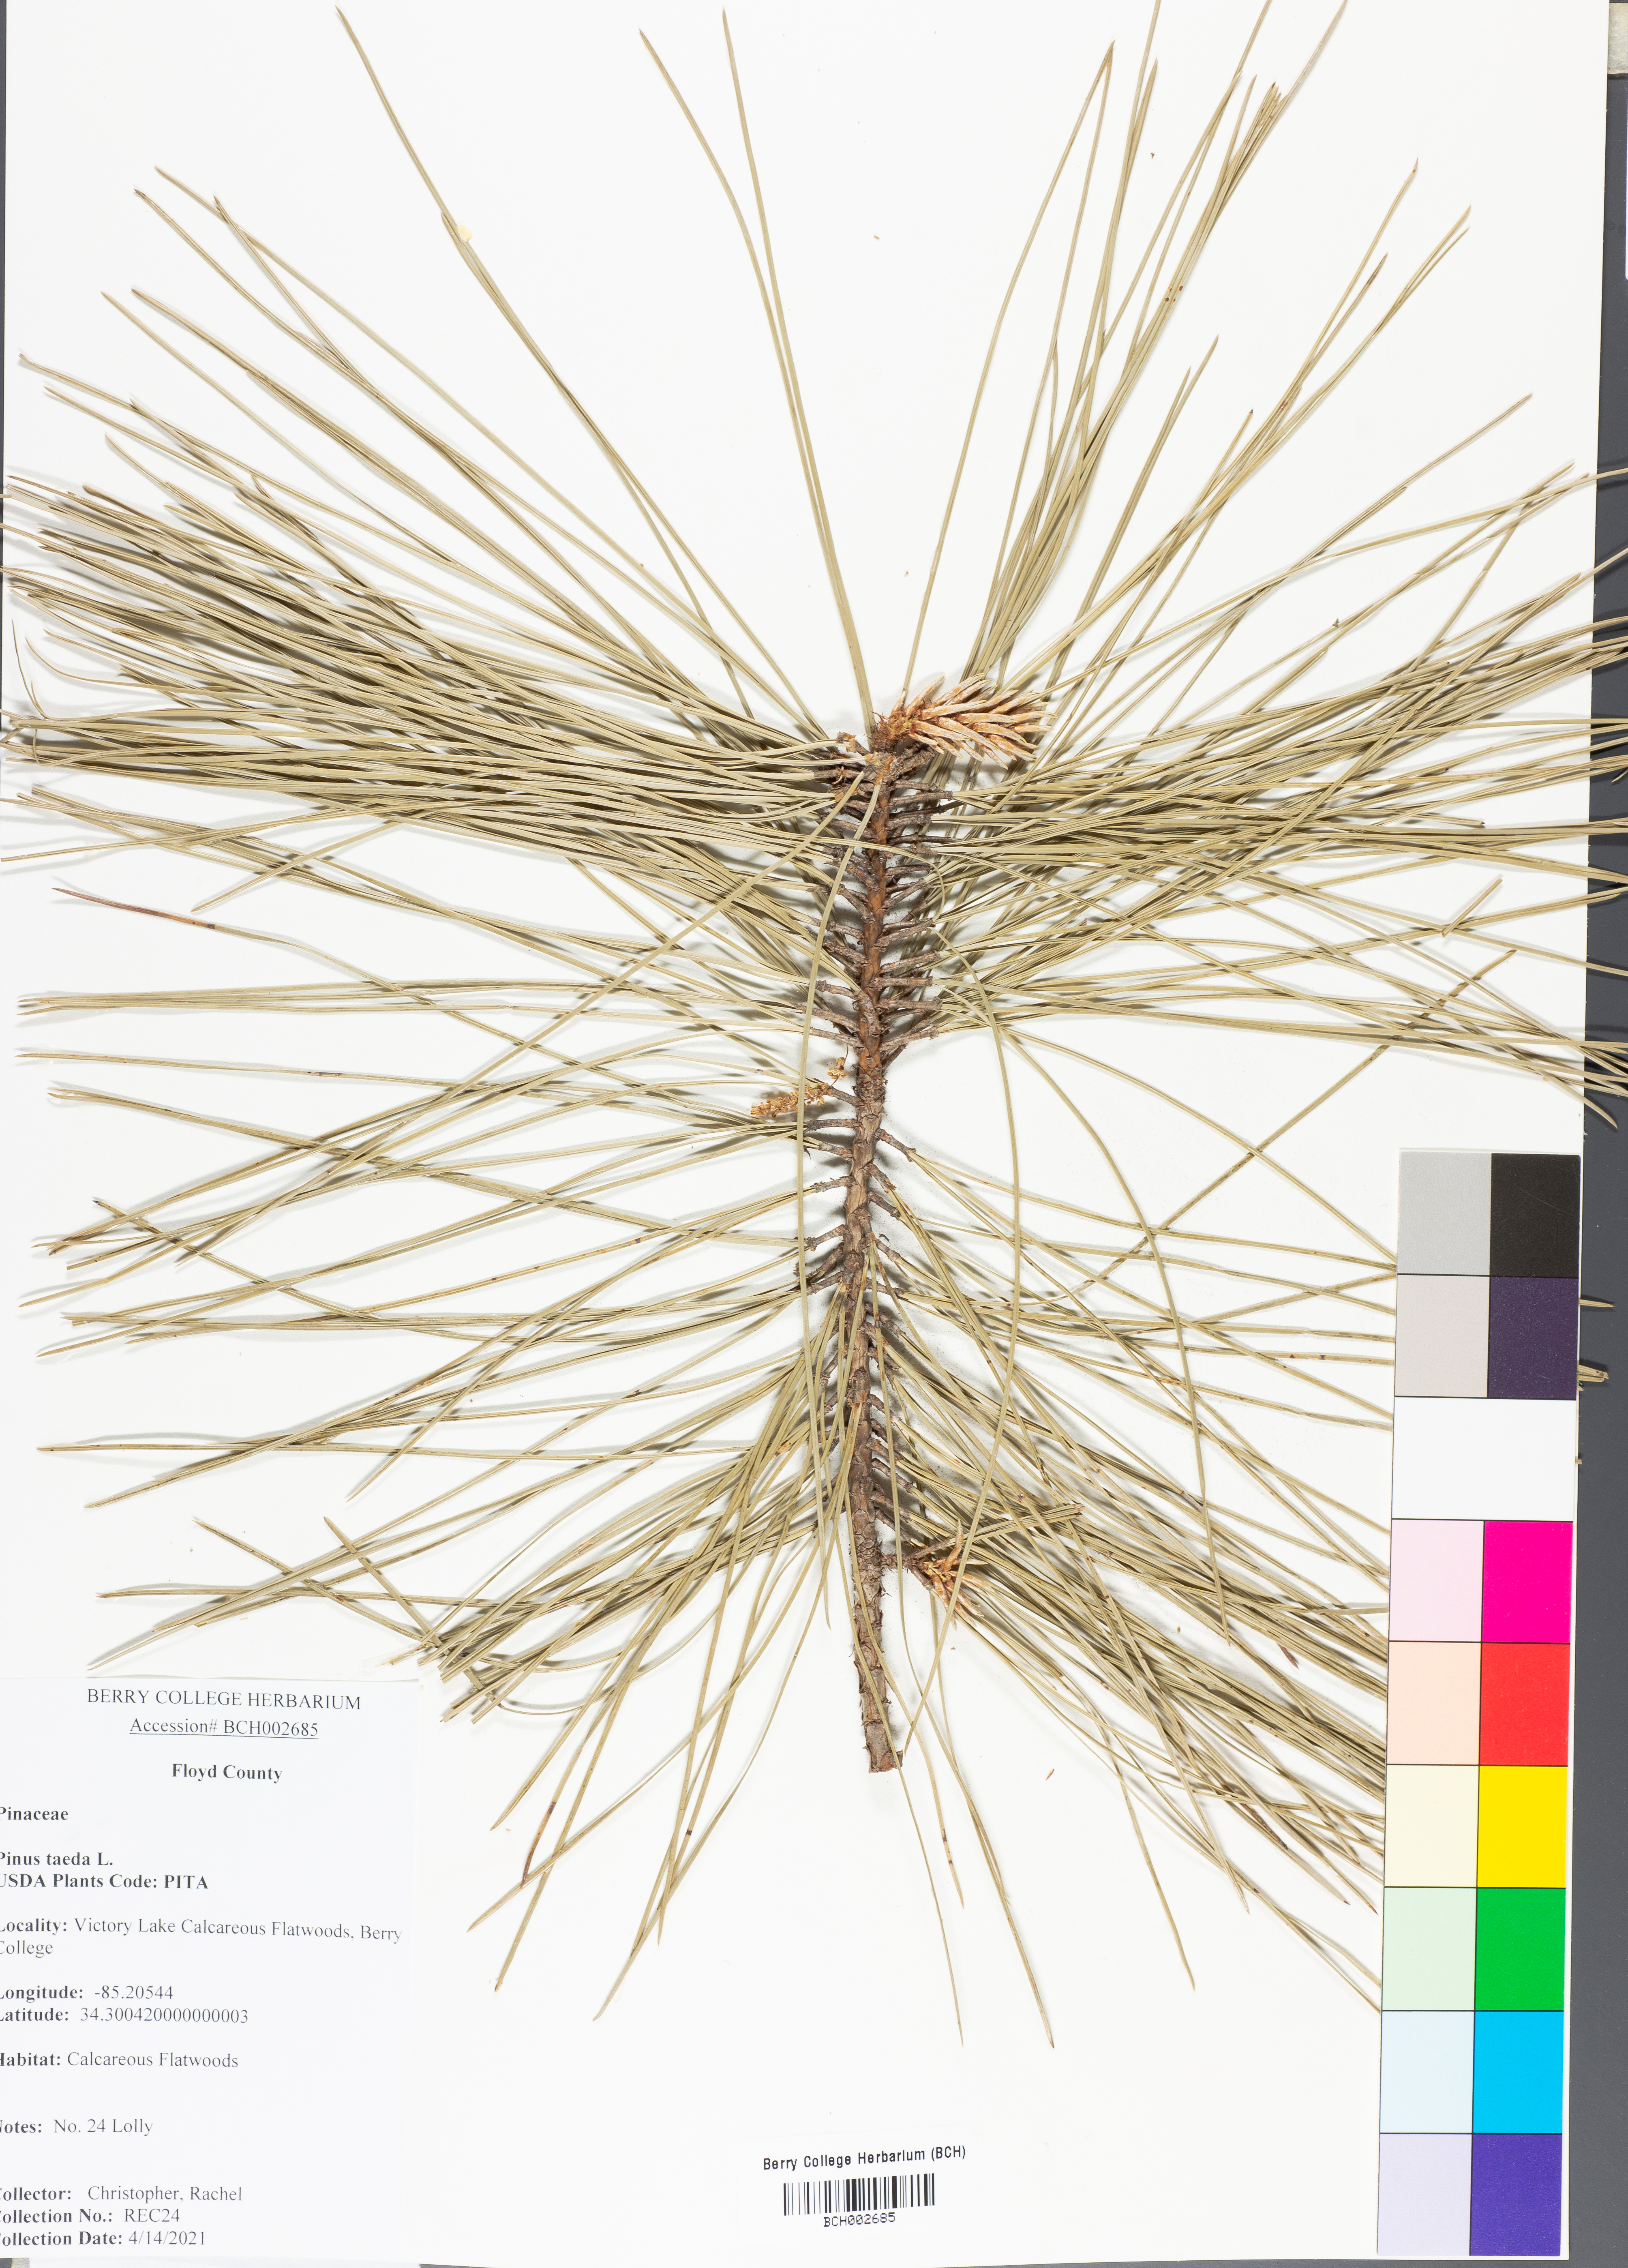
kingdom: Plantae
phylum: Tracheophyta
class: Pinopsida
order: Pinales
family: Pinaceae
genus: Pinus
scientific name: Pinus taeda
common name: Loblolly pine
